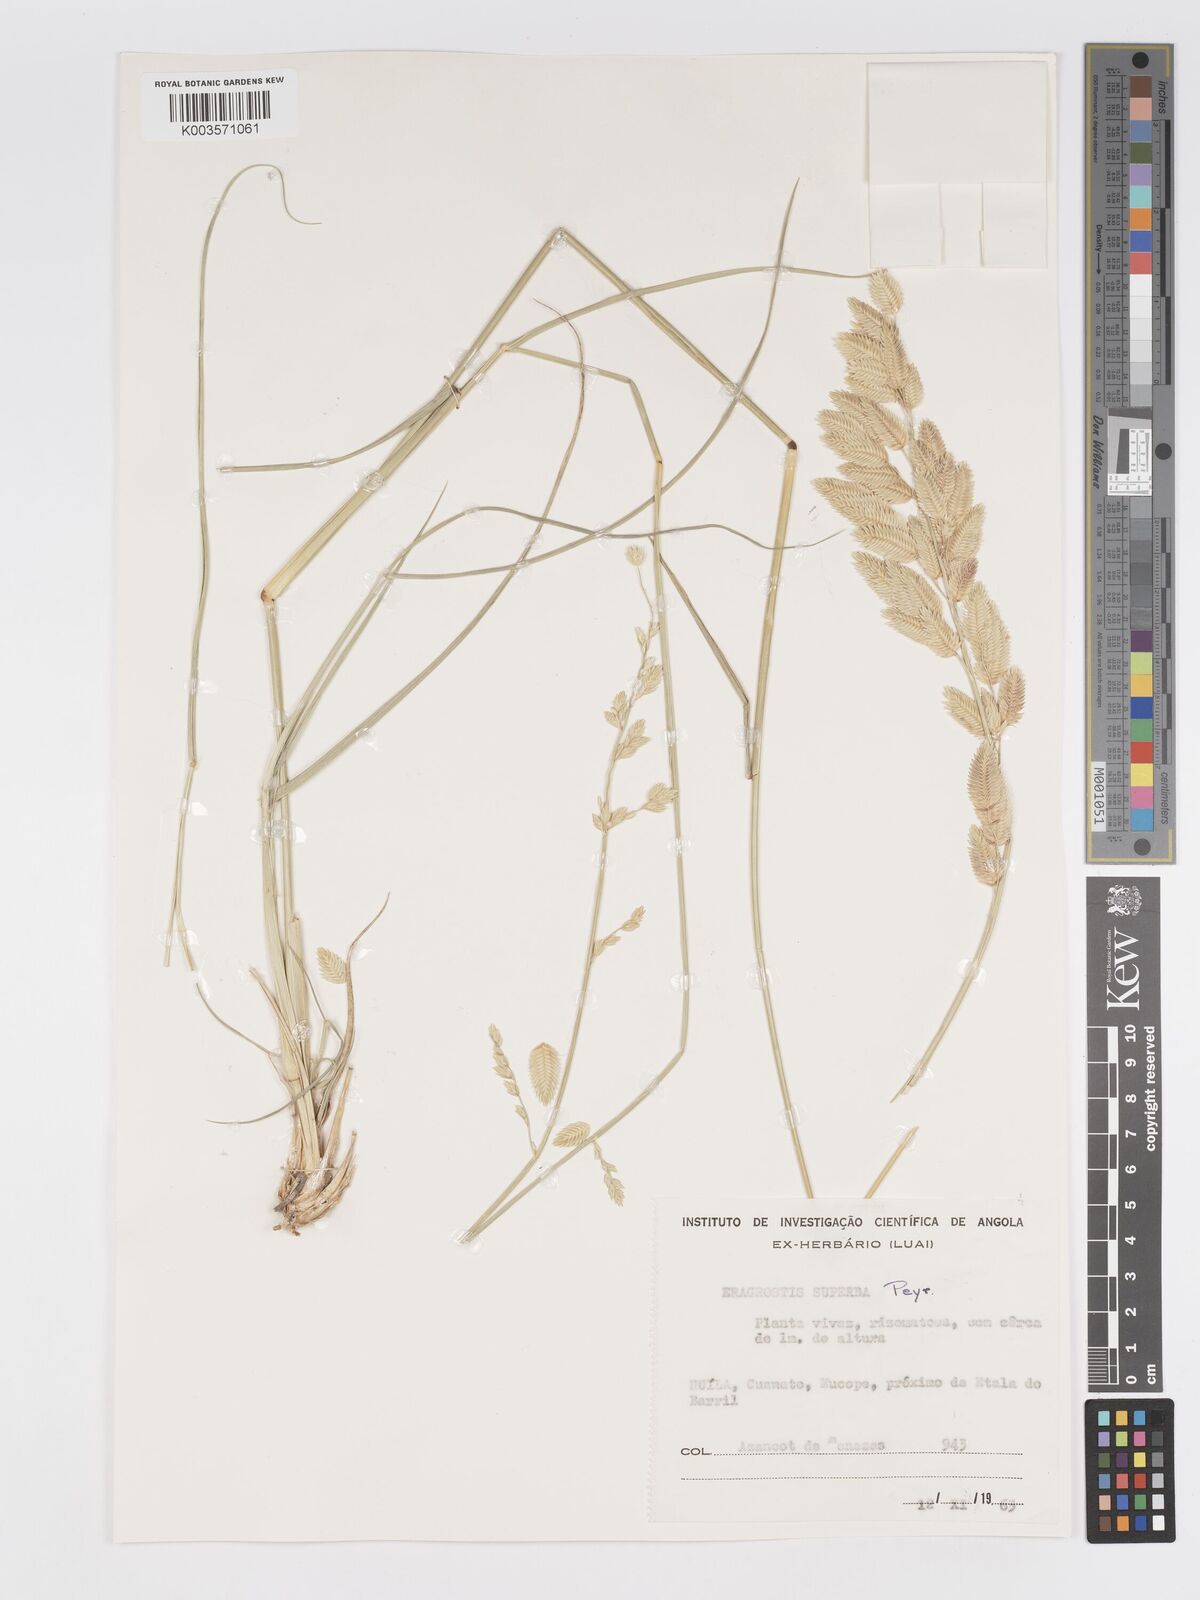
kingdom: Plantae
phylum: Tracheophyta
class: Liliopsida
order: Poales
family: Poaceae
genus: Eragrostis
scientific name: Eragrostis superba
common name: Wilman lovegrass
